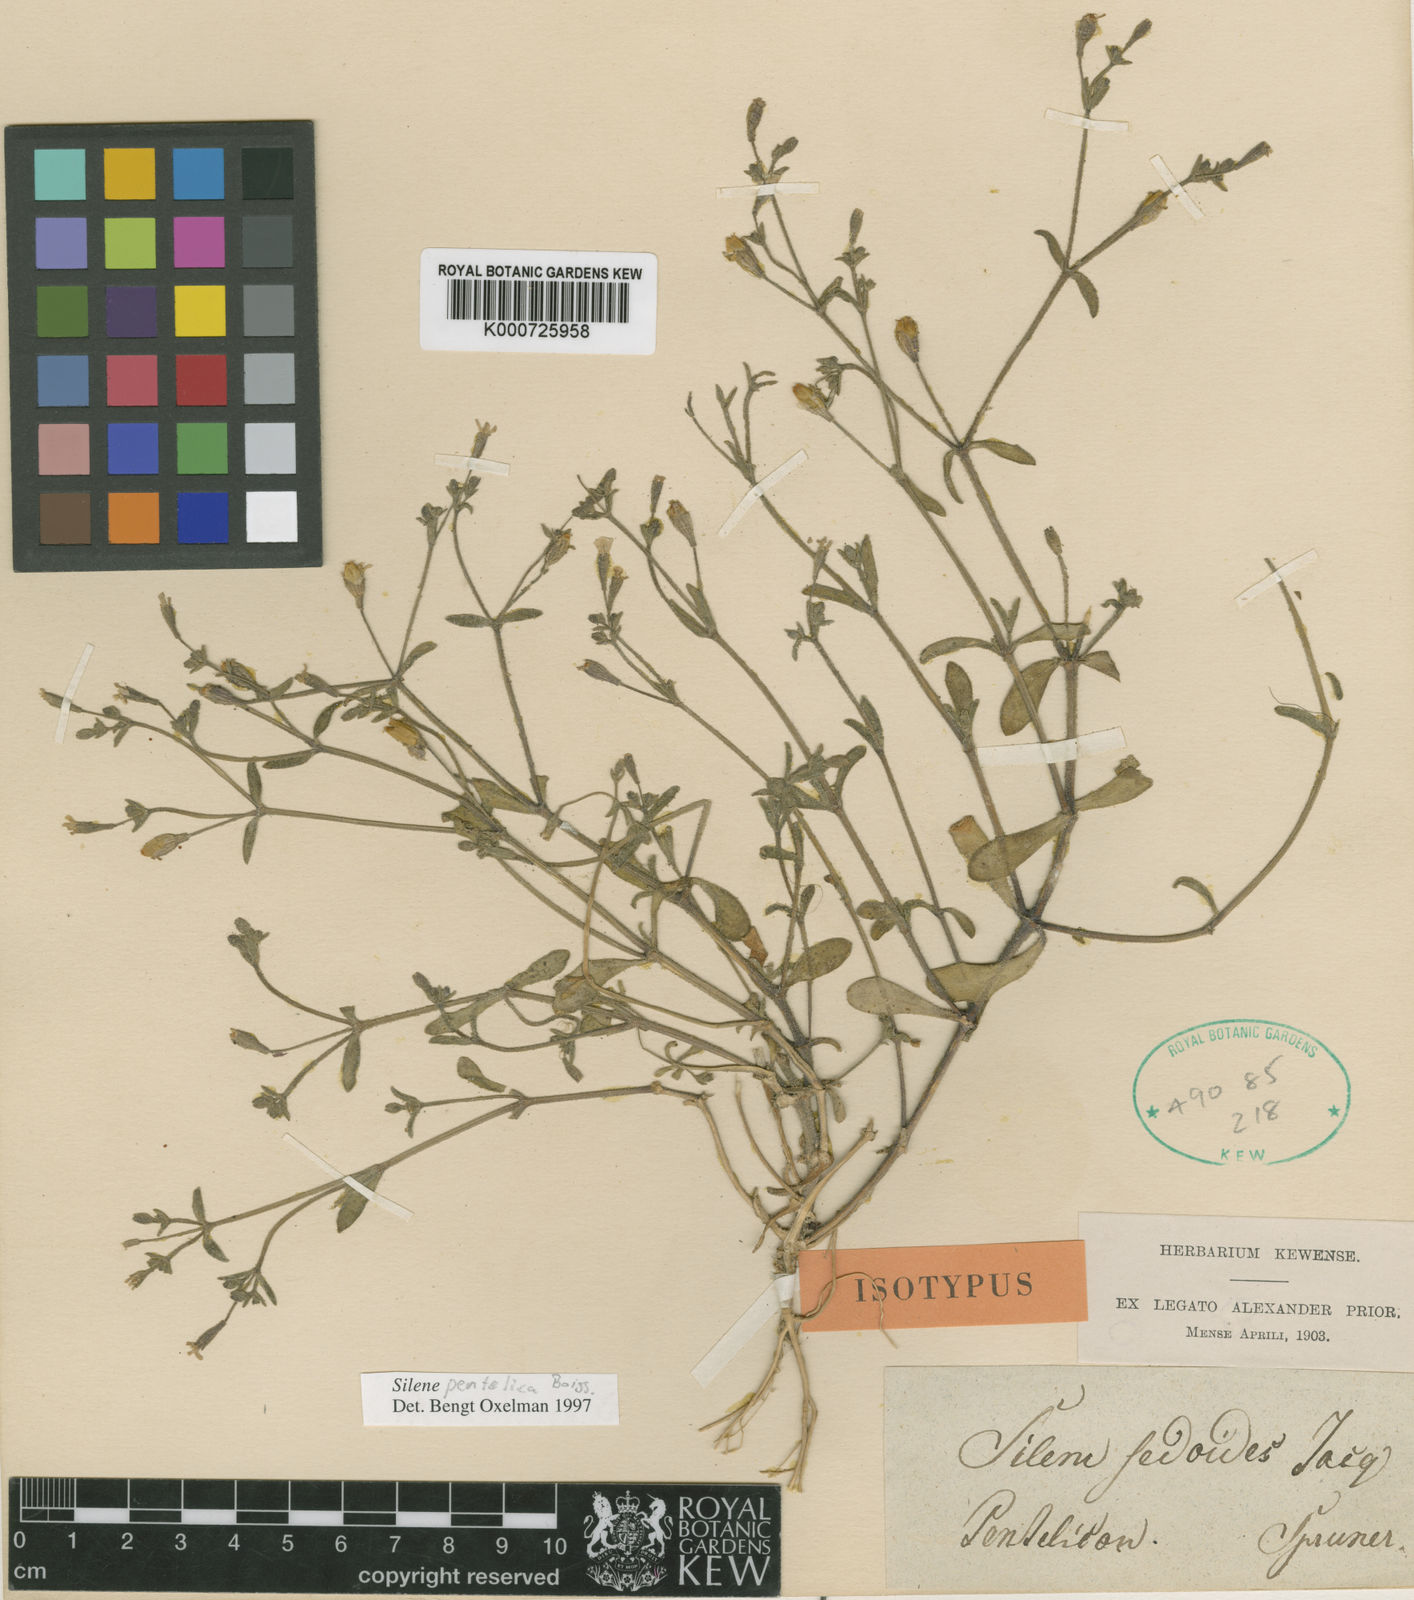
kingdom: Plantae
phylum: Tracheophyta
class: Magnoliopsida
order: Caryophyllales
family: Caryophyllaceae
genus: Silene
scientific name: Silene pentelica
